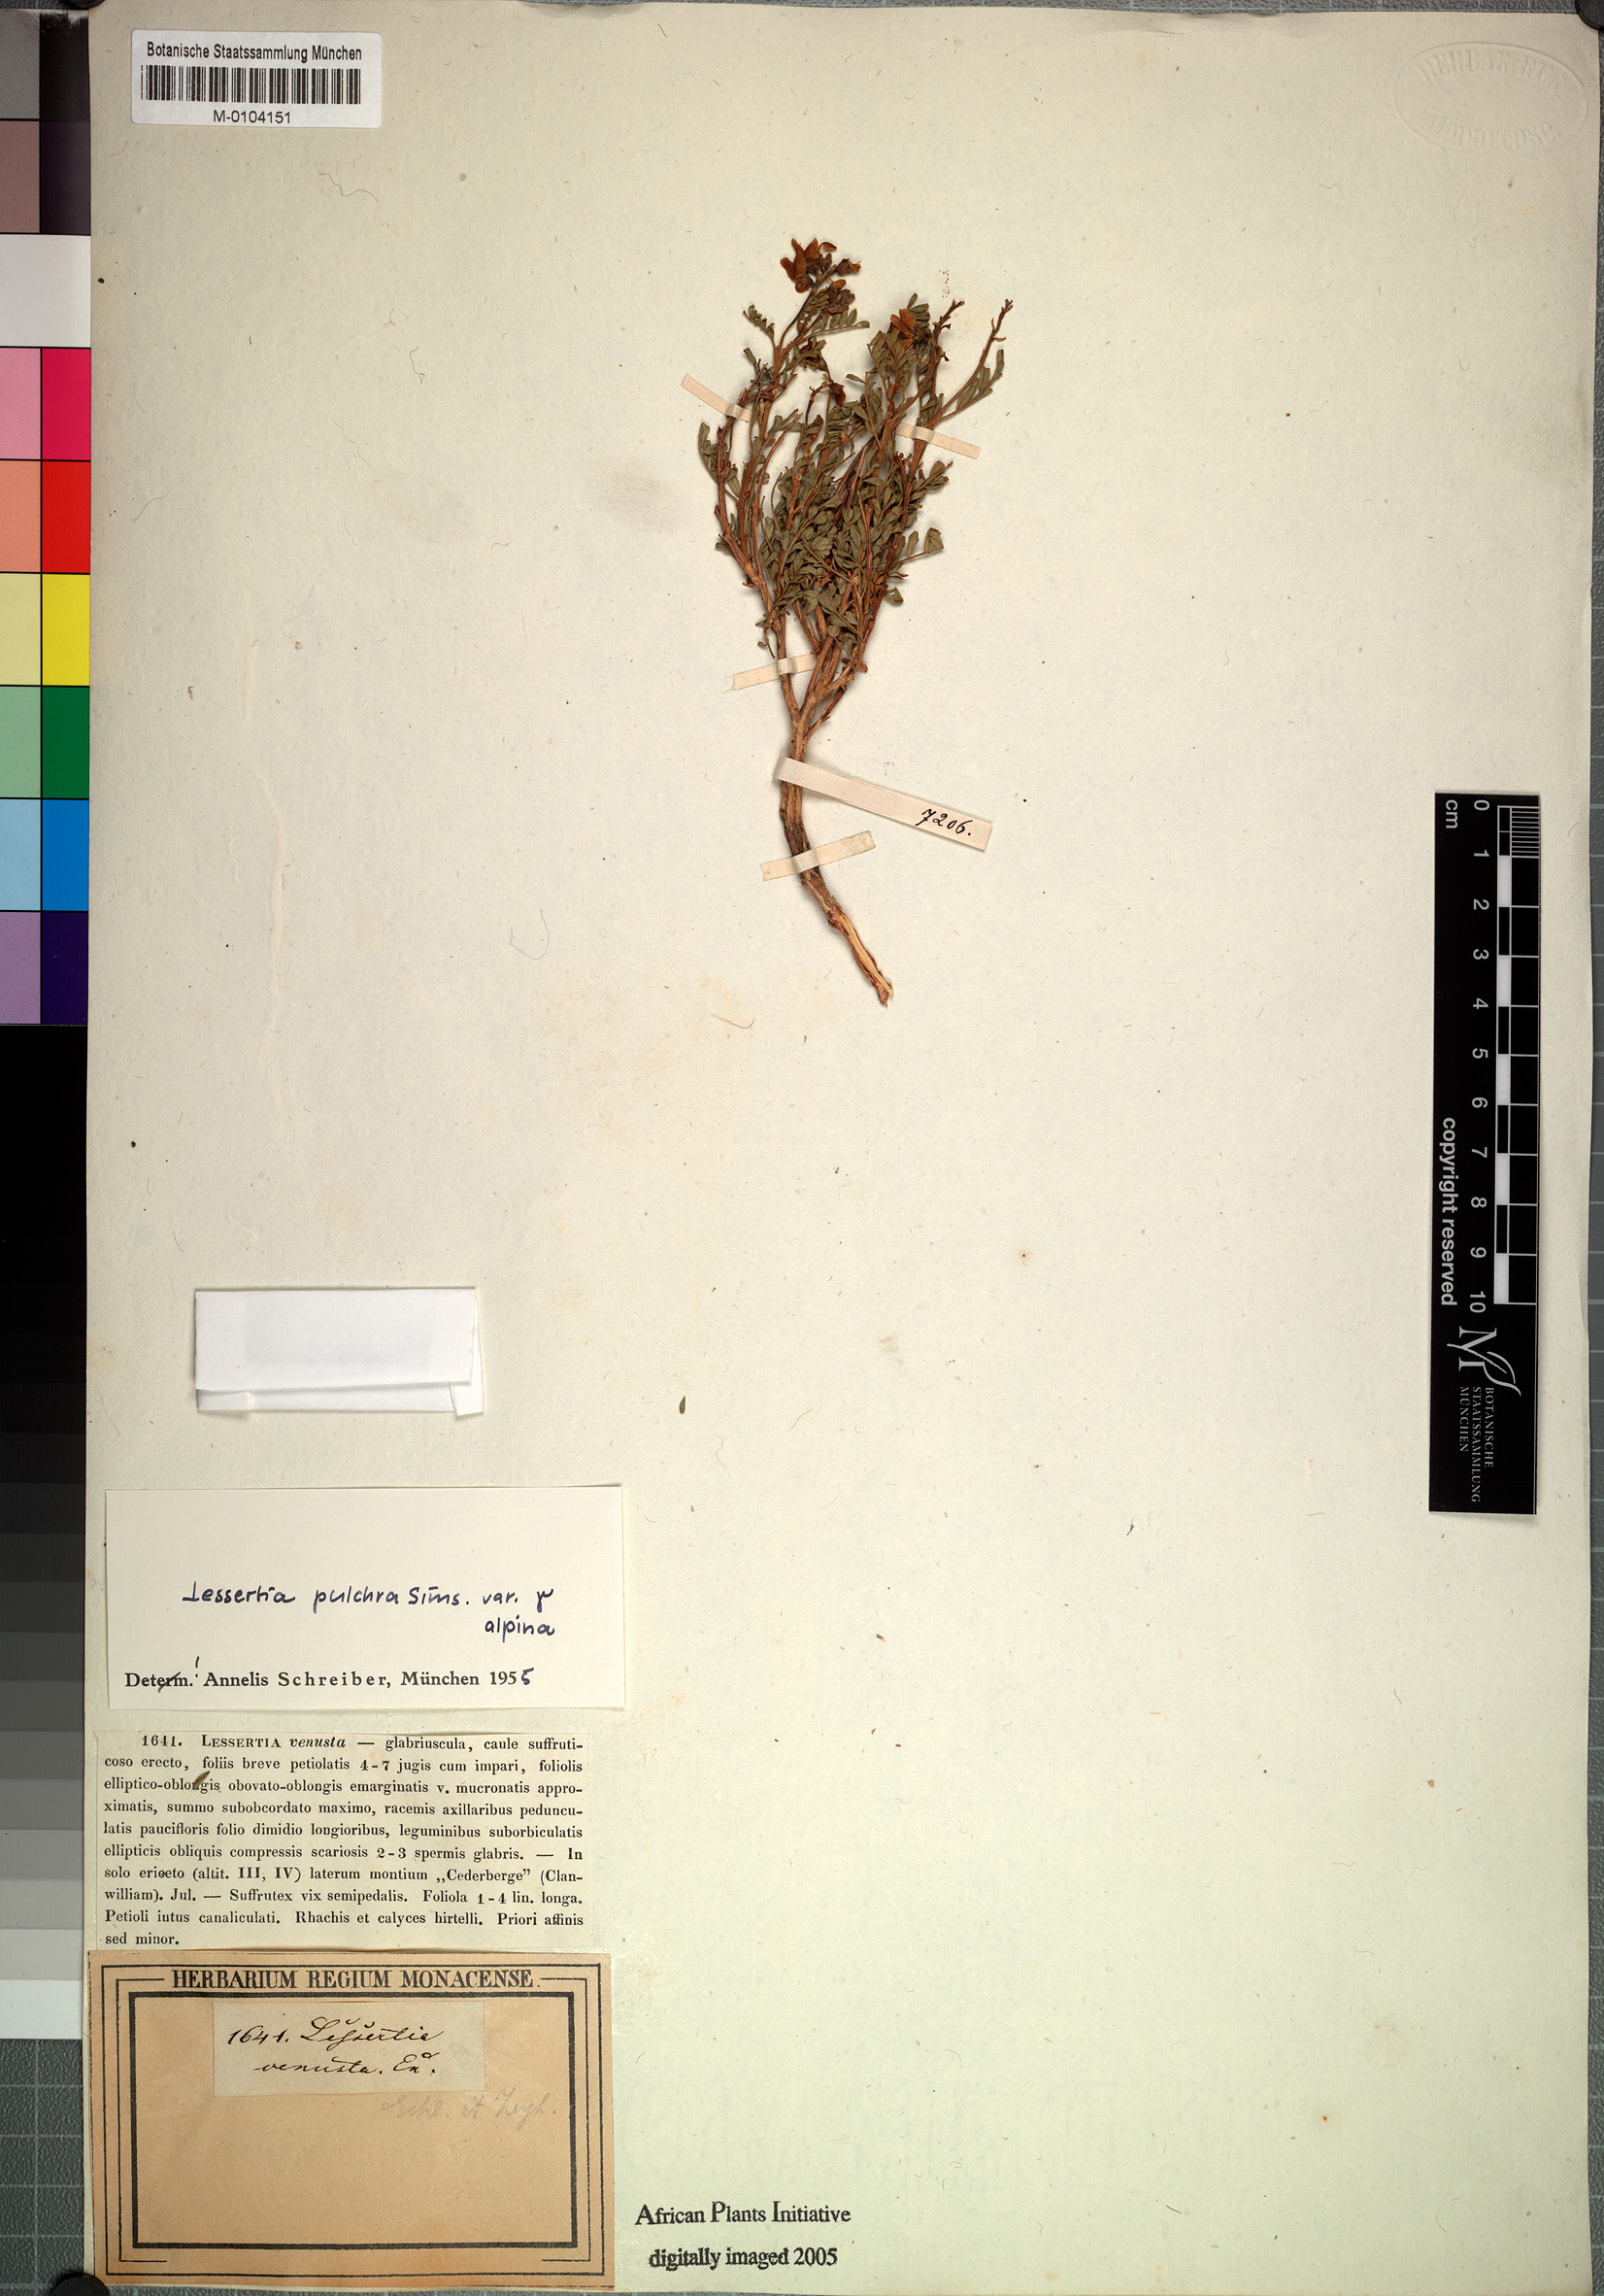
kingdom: Plantae
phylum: Tracheophyta
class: Magnoliopsida
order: Fabales
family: Fabaceae
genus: Lessertia
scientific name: Lessertia capensis
